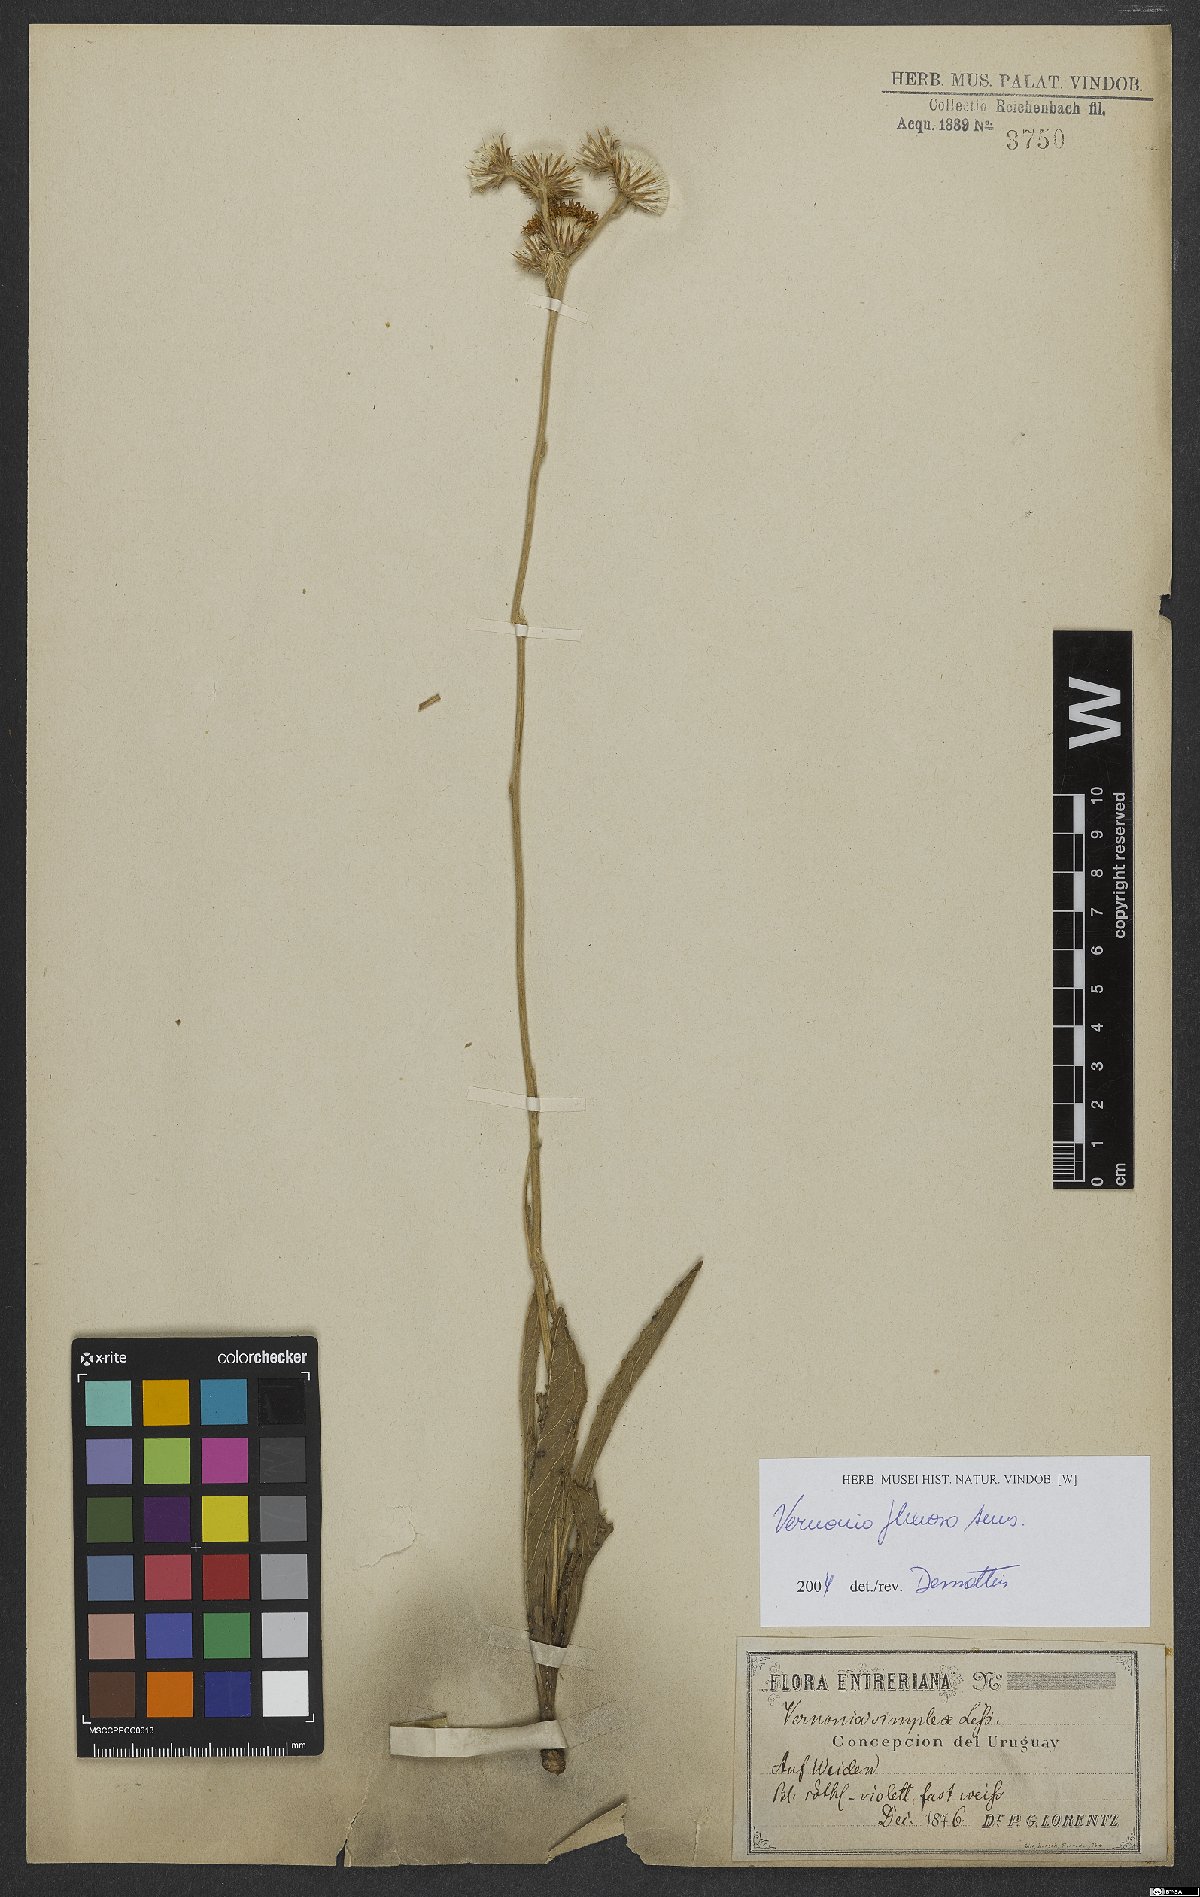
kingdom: Plantae
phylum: Tracheophyta
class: Magnoliopsida
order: Asterales
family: Asteraceae
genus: Chrysolaena
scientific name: Chrysolaena flexuosa
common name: Zig-zag vernonia
